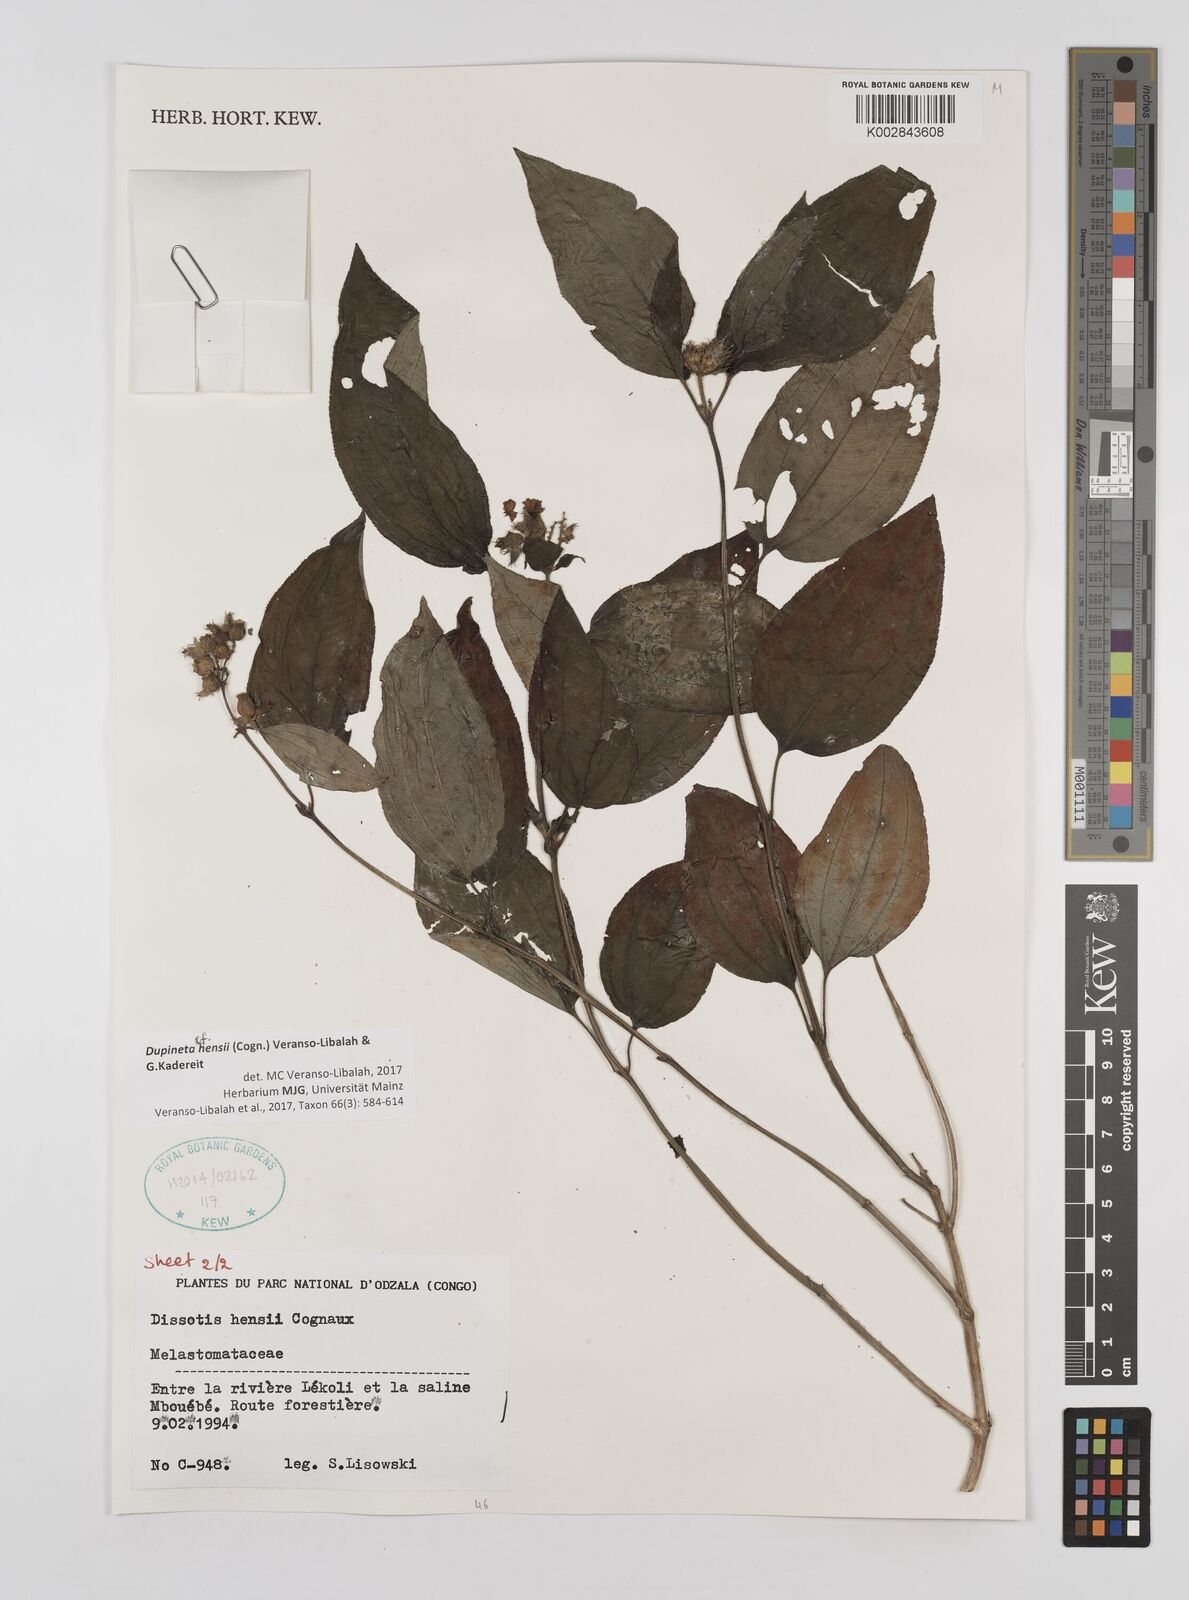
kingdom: Plantae
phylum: Tracheophyta
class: Magnoliopsida
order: Myrtales
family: Melastomataceae
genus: Dupineta
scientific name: Dupineta hensii
